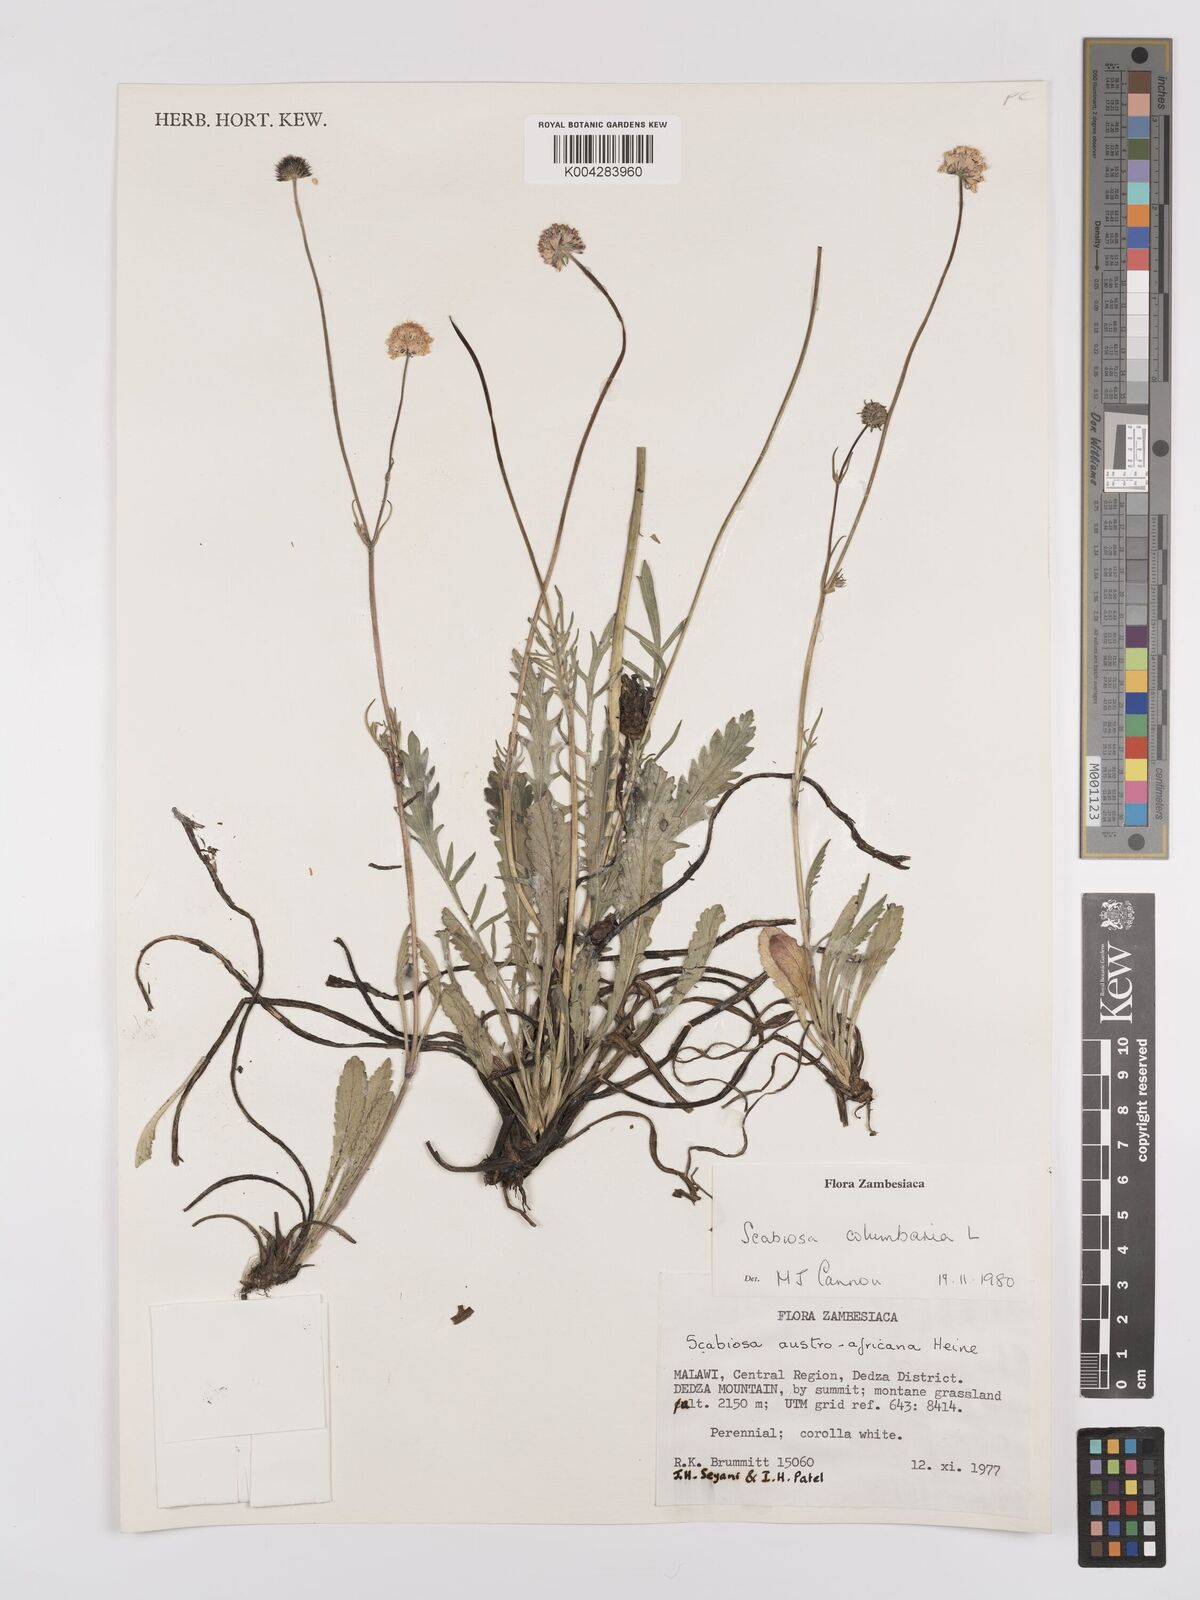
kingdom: Plantae
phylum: Tracheophyta
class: Magnoliopsida
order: Dipsacales
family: Caprifoliaceae
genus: Scabiosa
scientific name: Scabiosa austroafricana
